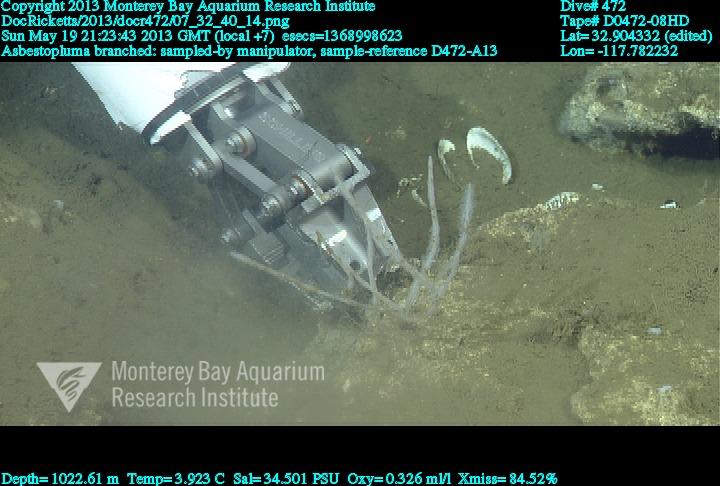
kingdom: Animalia
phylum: Porifera
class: Demospongiae
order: Poecilosclerida
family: Cladorhizidae
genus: Asbestopluma
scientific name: Asbestopluma rickettsi
